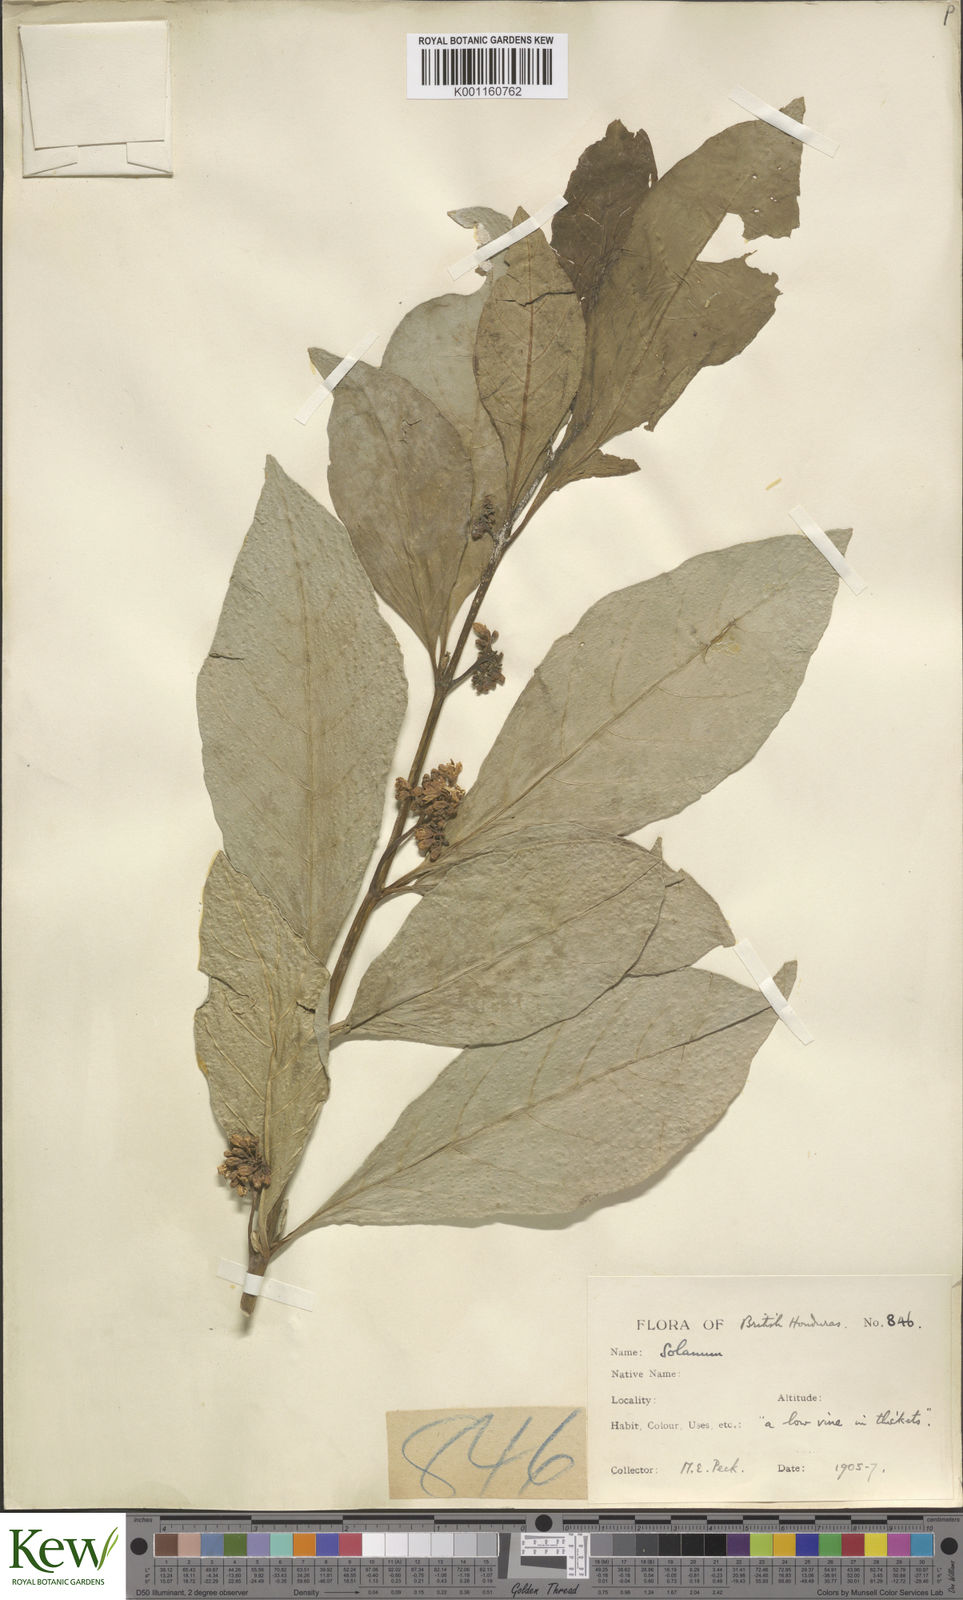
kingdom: Plantae
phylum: Tracheophyta
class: Magnoliopsida
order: Solanales
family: Solanaceae
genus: Solanum
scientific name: Solanum rovirosanum
